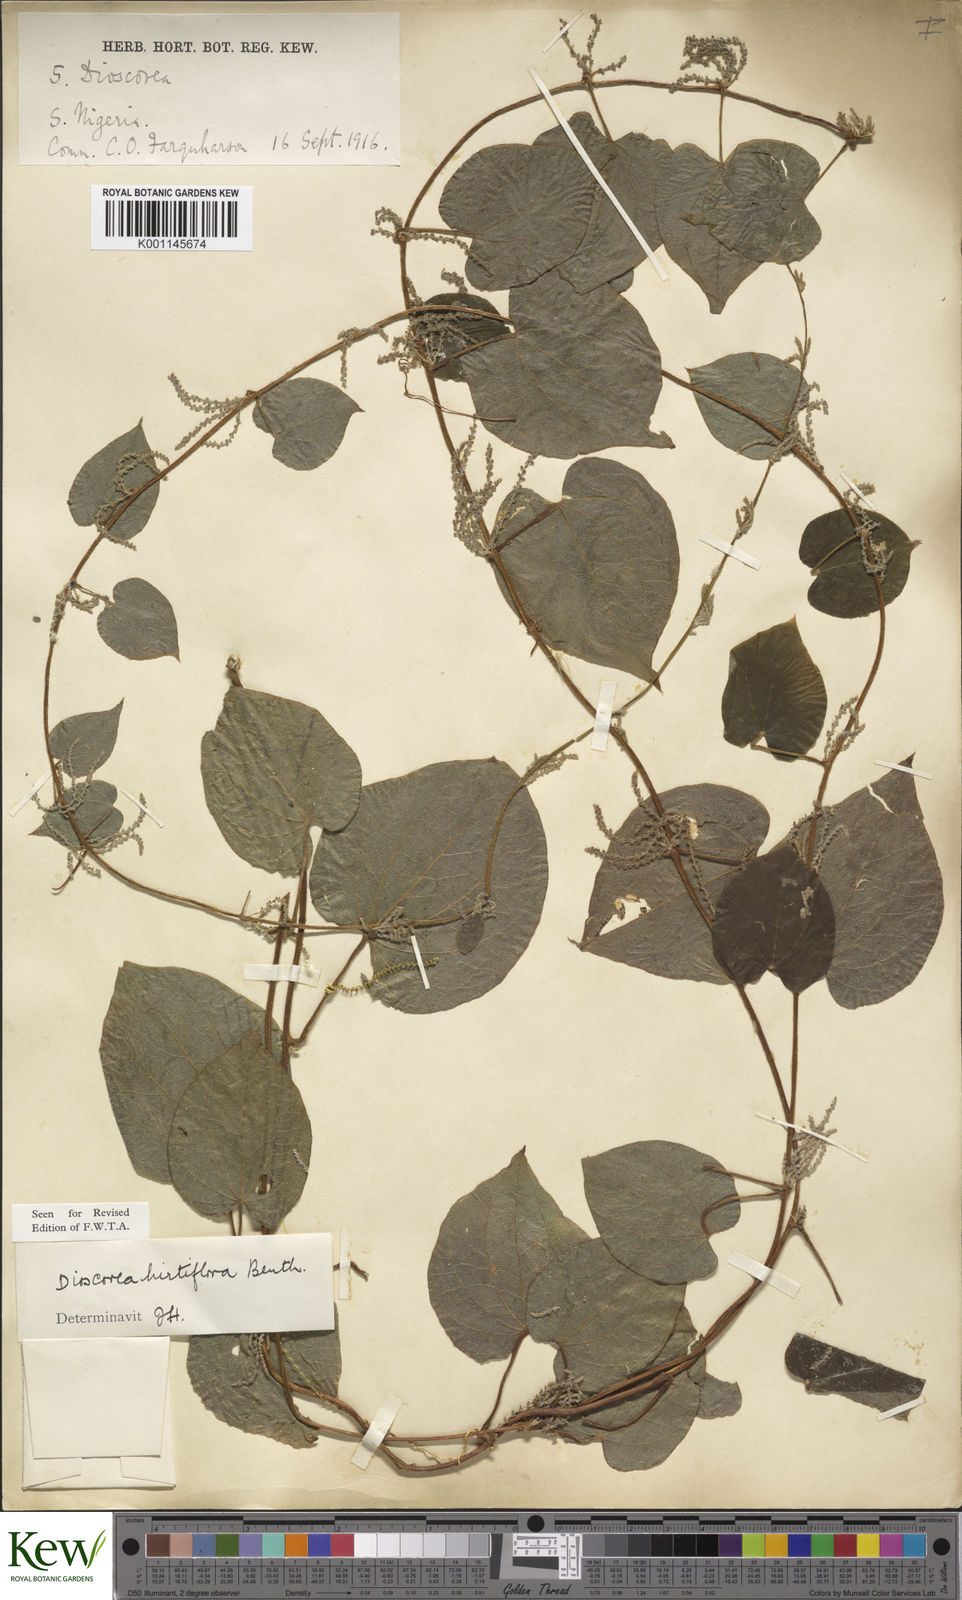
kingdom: Plantae
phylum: Tracheophyta
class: Liliopsida
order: Dioscoreales
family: Dioscoreaceae
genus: Dioscorea
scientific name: Dioscorea hirtiflora
